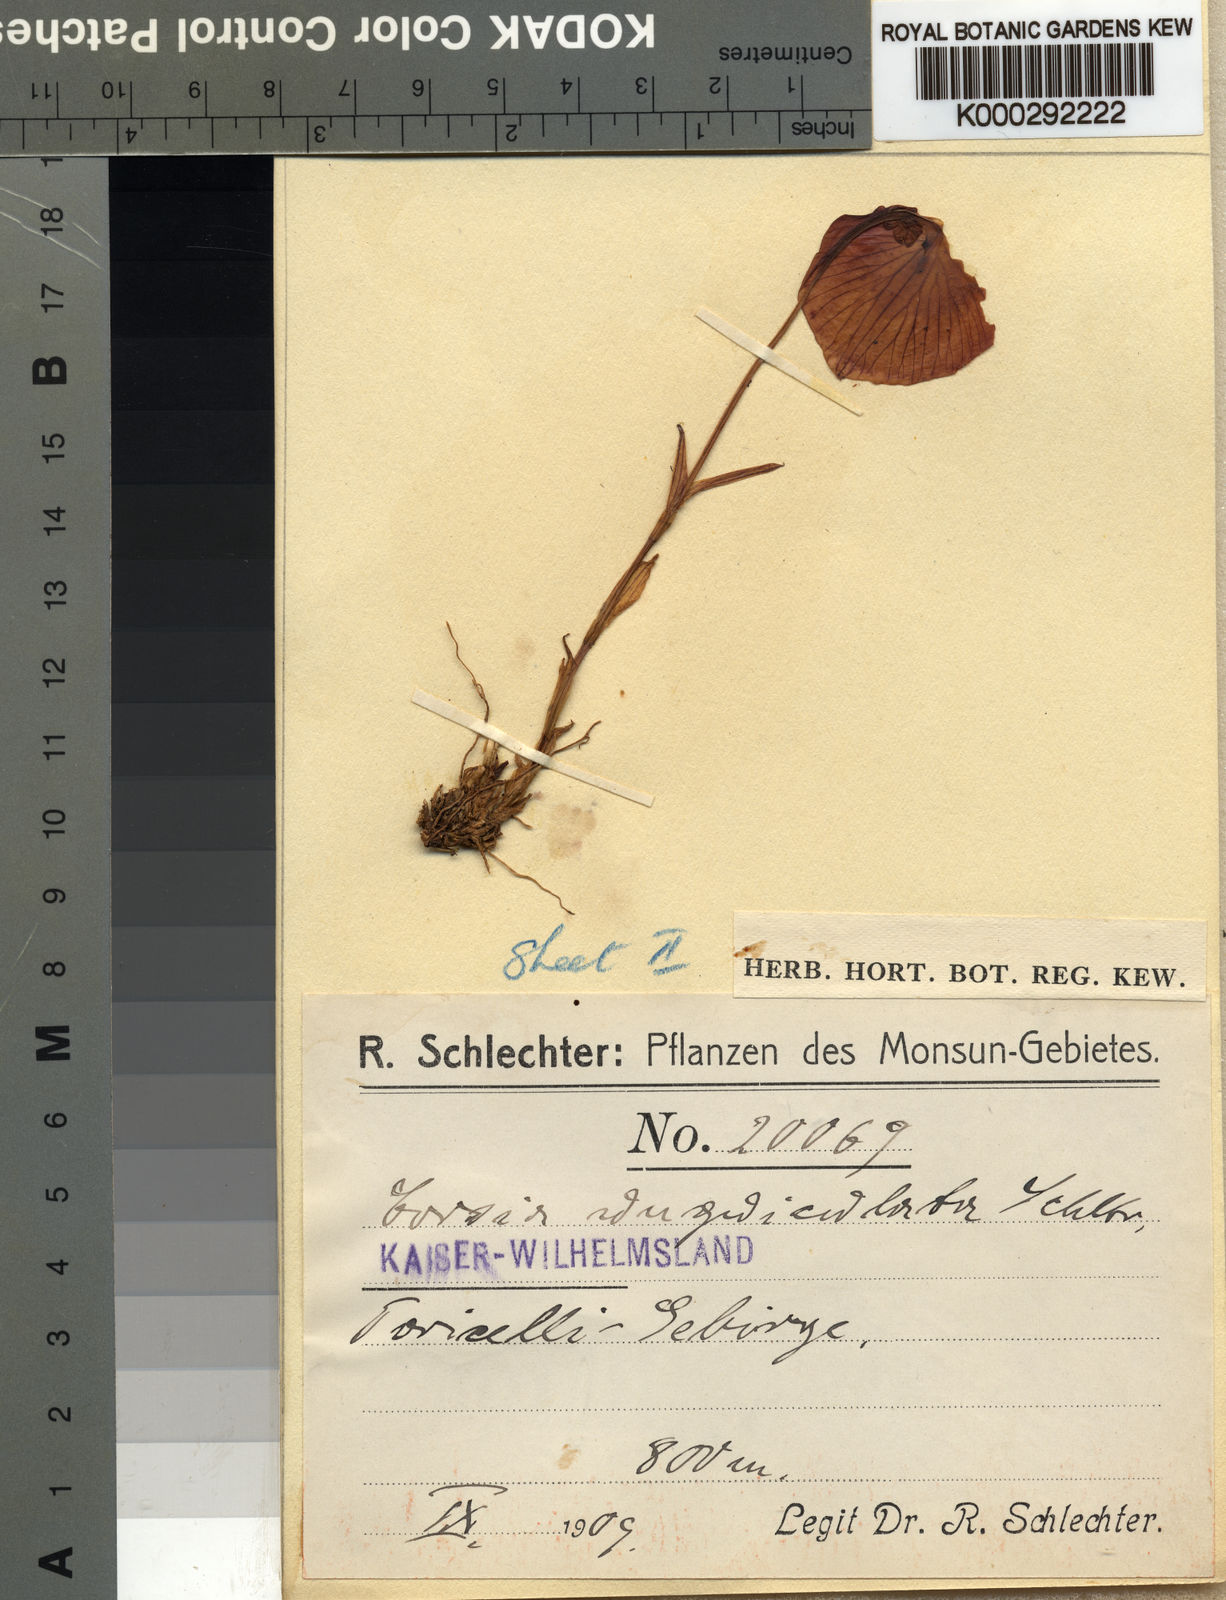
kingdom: Plantae
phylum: Tracheophyta
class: Liliopsida
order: Liliales
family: Corsiaceae
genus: Corsia
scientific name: Corsia unguiculata
